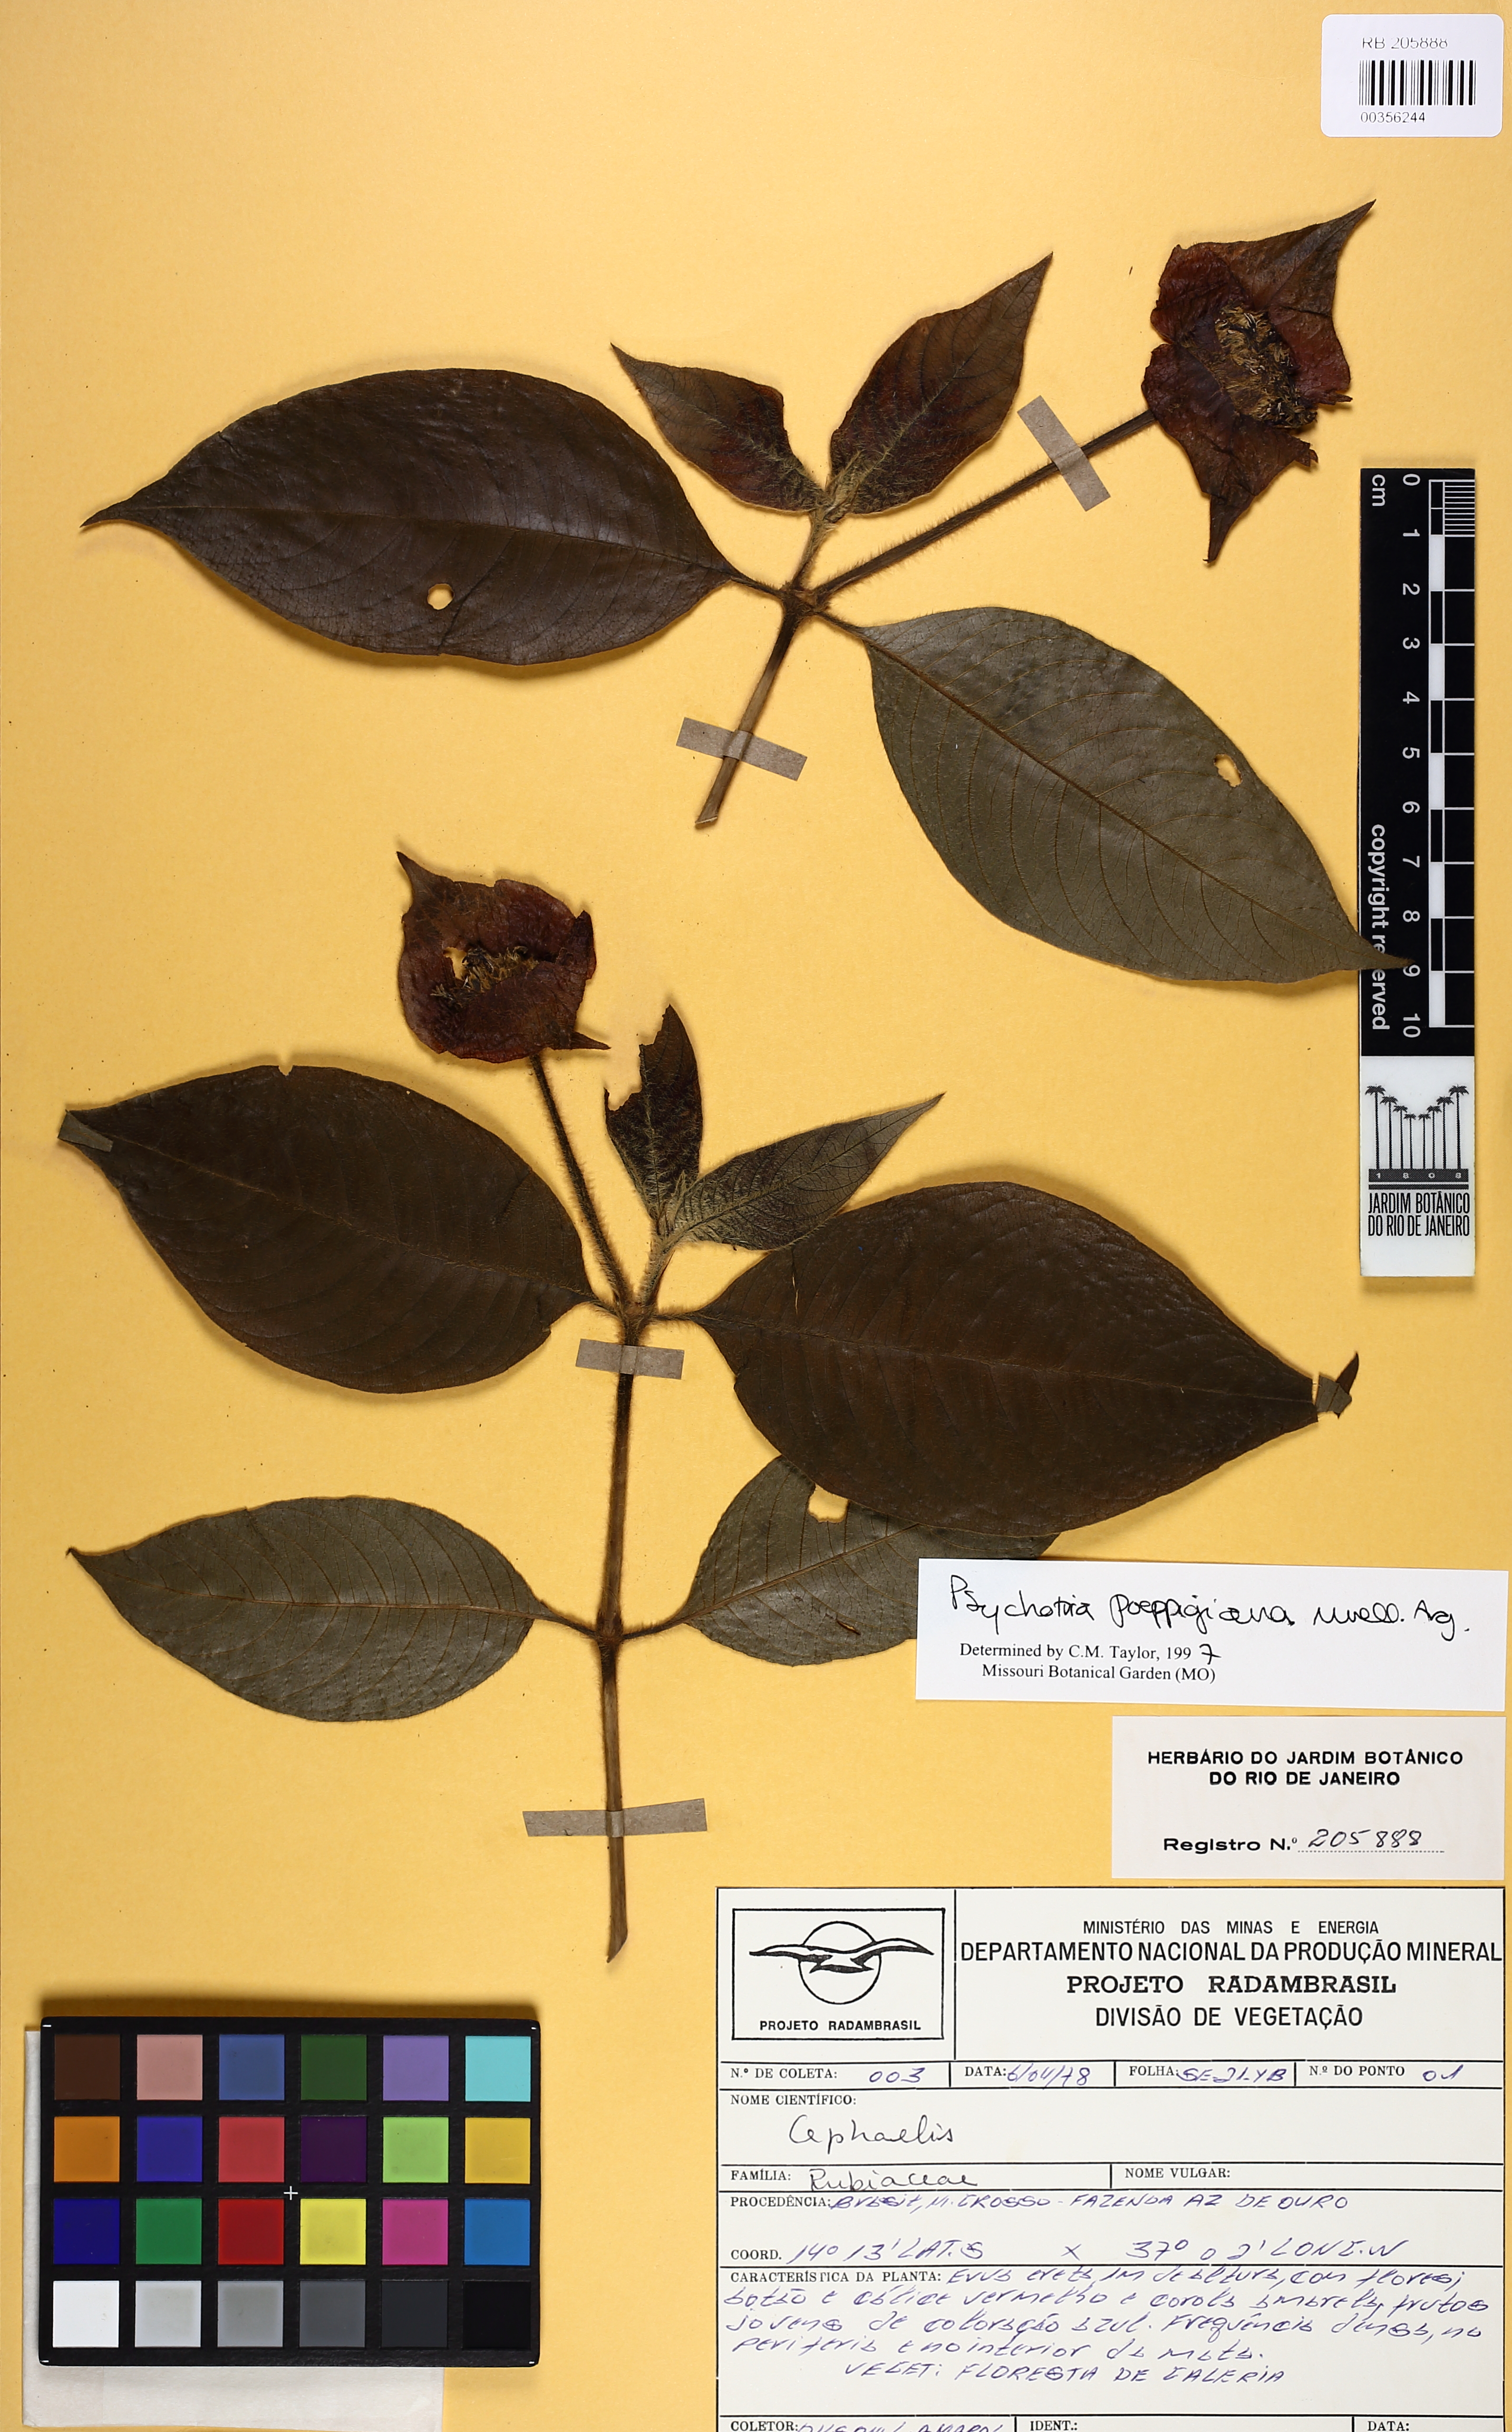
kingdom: Plantae
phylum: Tracheophyta
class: Magnoliopsida
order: Gentianales
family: Rubiaceae
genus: Palicourea
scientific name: Palicourea tomentosa
